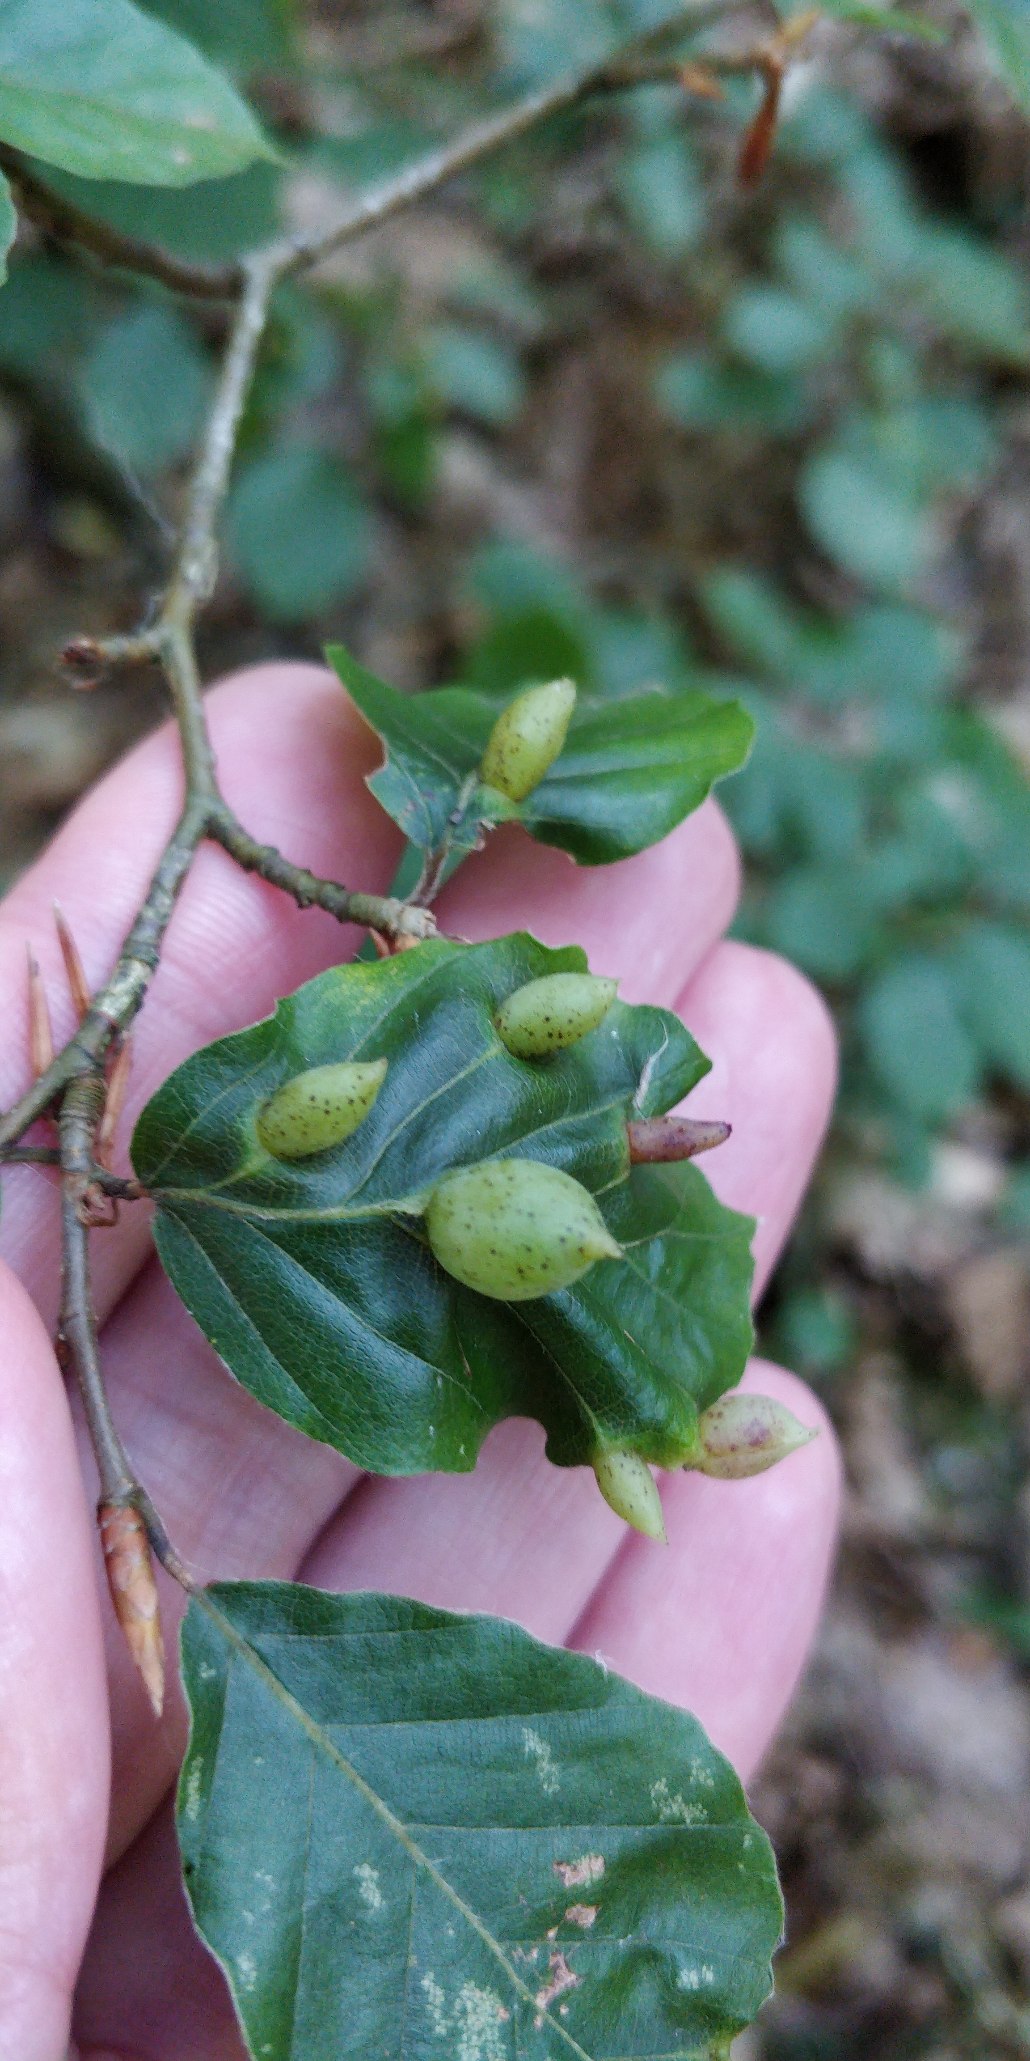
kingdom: Animalia
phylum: Arthropoda
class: Insecta
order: Diptera
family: Cecidomyiidae
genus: Mikiola
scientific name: Mikiola fagi
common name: Bøgegalmyg
